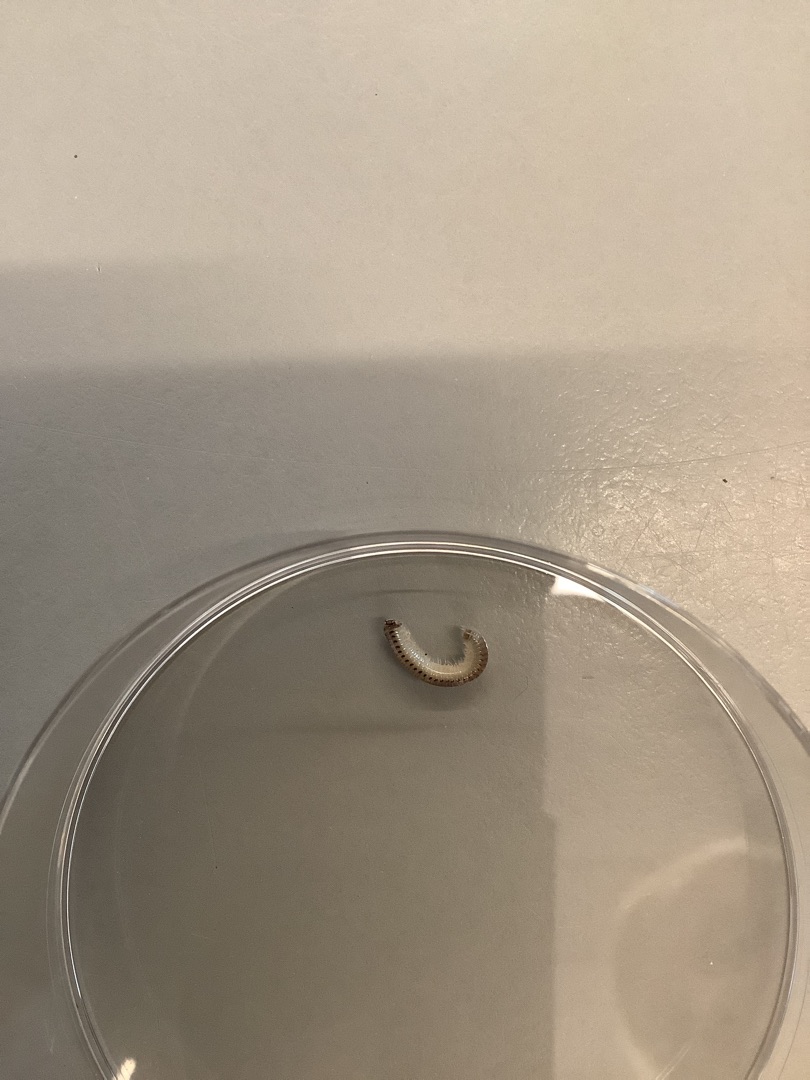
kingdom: Animalia
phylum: Arthropoda
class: Diplopoda
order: Julida
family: Julidae
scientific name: Julidae
